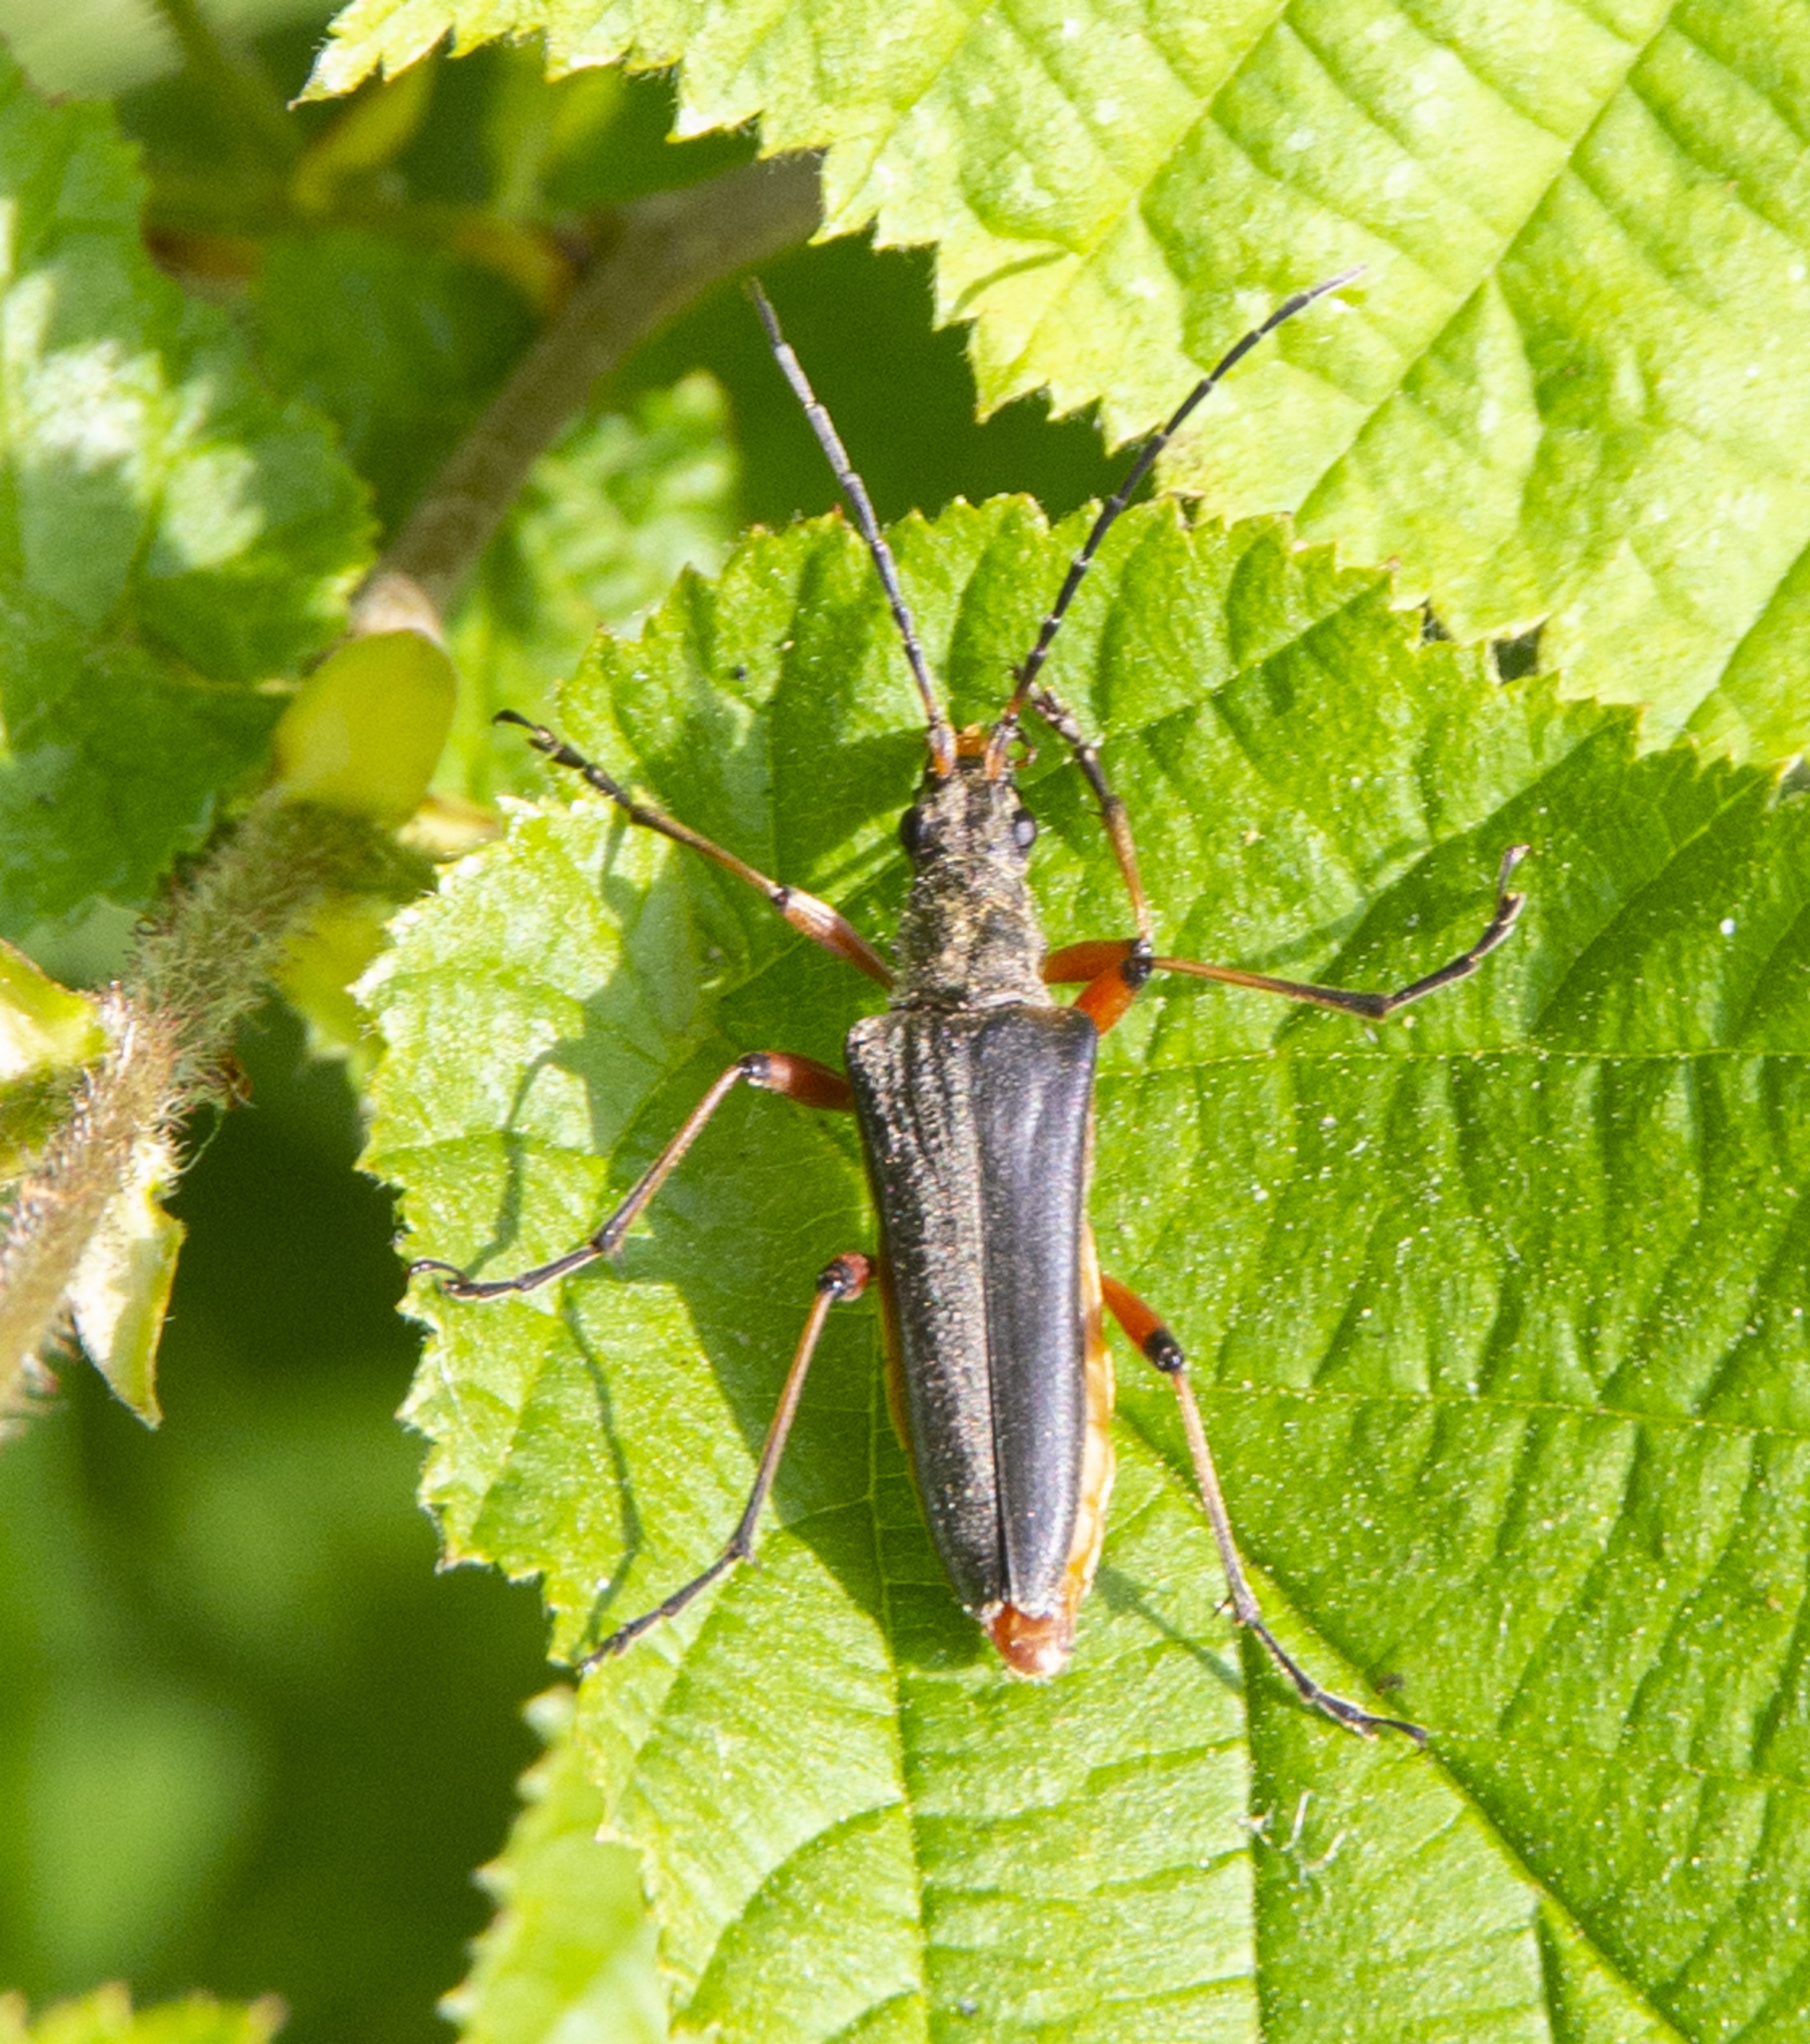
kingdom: Animalia
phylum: Arthropoda
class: Insecta
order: Coleoptera
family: Cerambycidae
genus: Stenocorus
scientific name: Stenocorus meridianus
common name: Smalbuk
